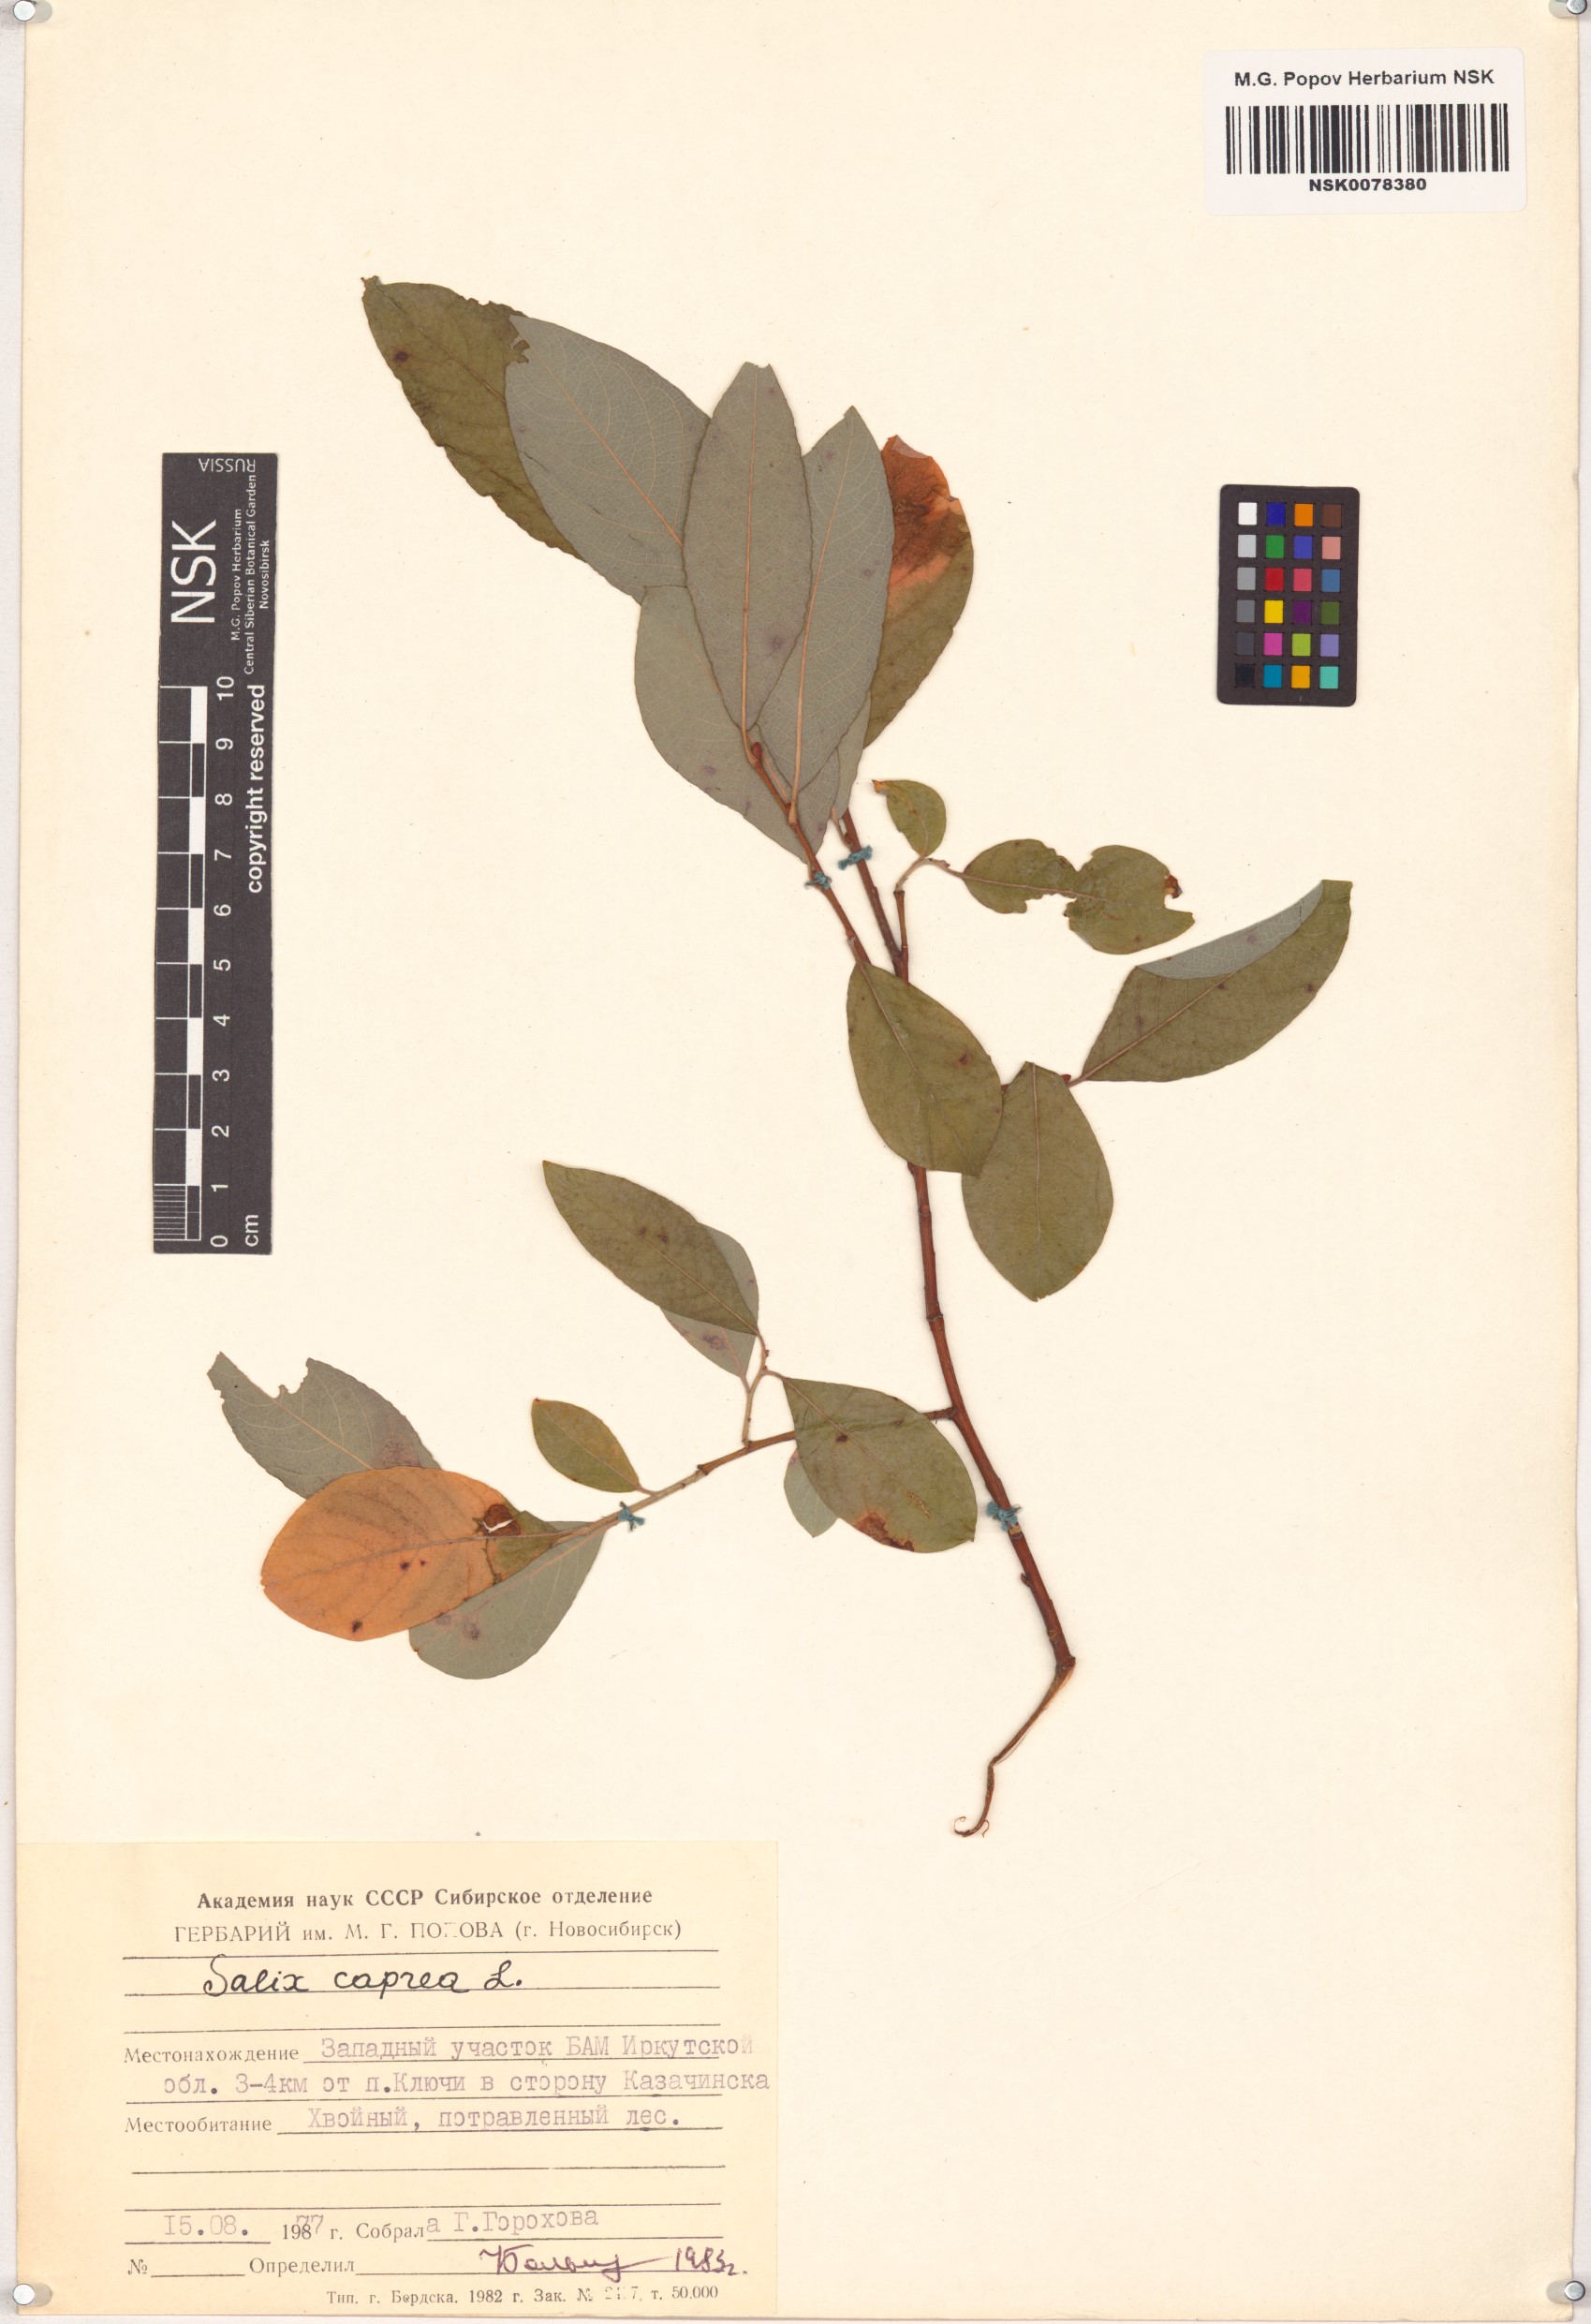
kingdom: Plantae
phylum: Tracheophyta
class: Magnoliopsida
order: Malpighiales
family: Salicaceae
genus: Salix
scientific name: Salix caprea
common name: Goat willow
